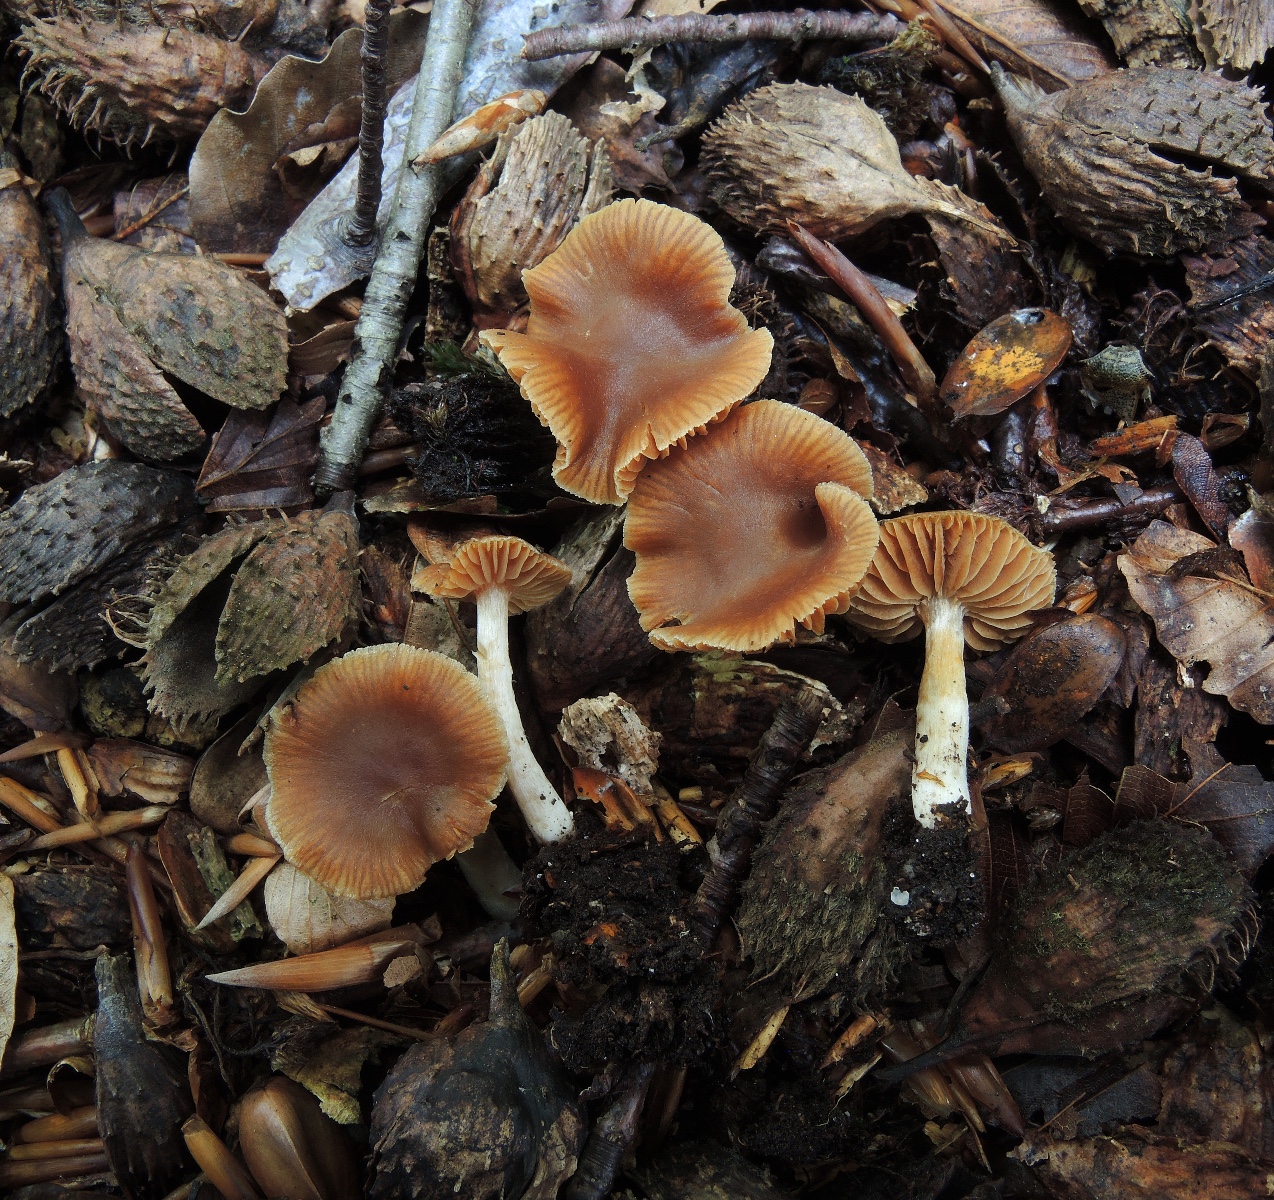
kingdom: Fungi
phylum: Basidiomycota
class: Agaricomycetes
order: Agaricales
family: Cortinariaceae
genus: Cortinarius
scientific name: Cortinarius
